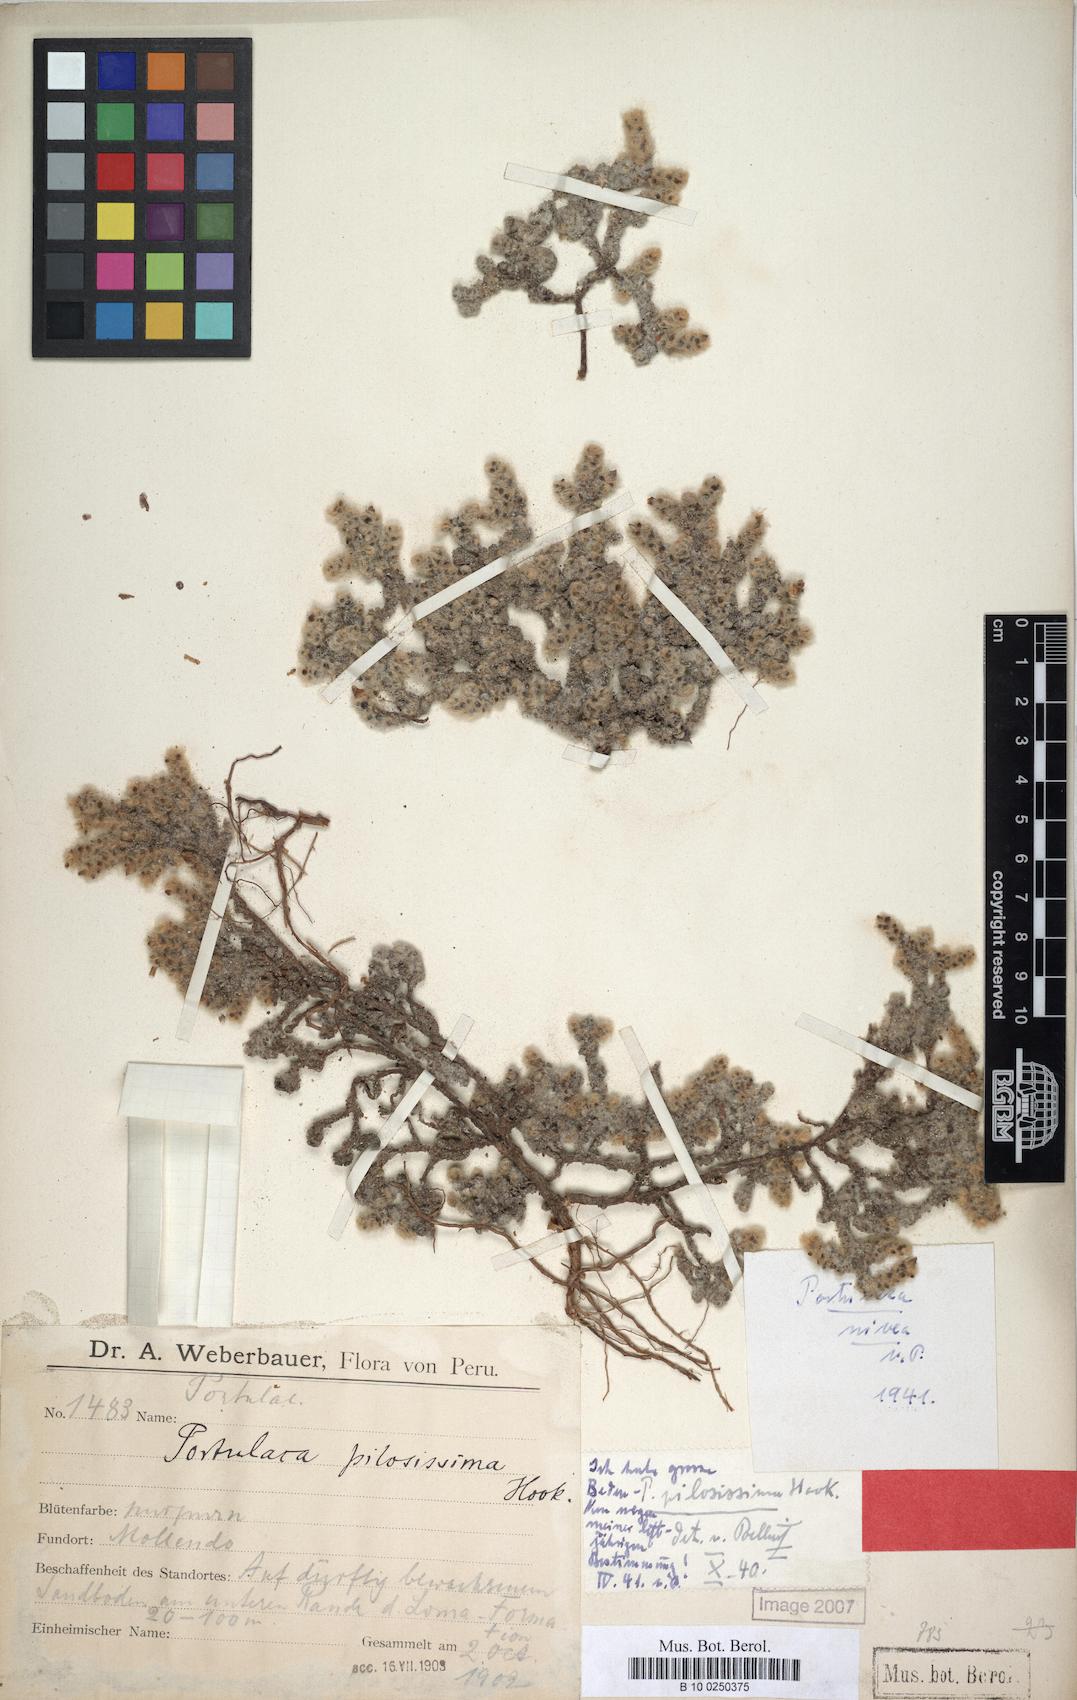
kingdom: Plantae
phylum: Tracheophyta
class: Magnoliopsida
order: Caryophyllales
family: Portulacaceae
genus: Portulaca
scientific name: Portulaca nivea
